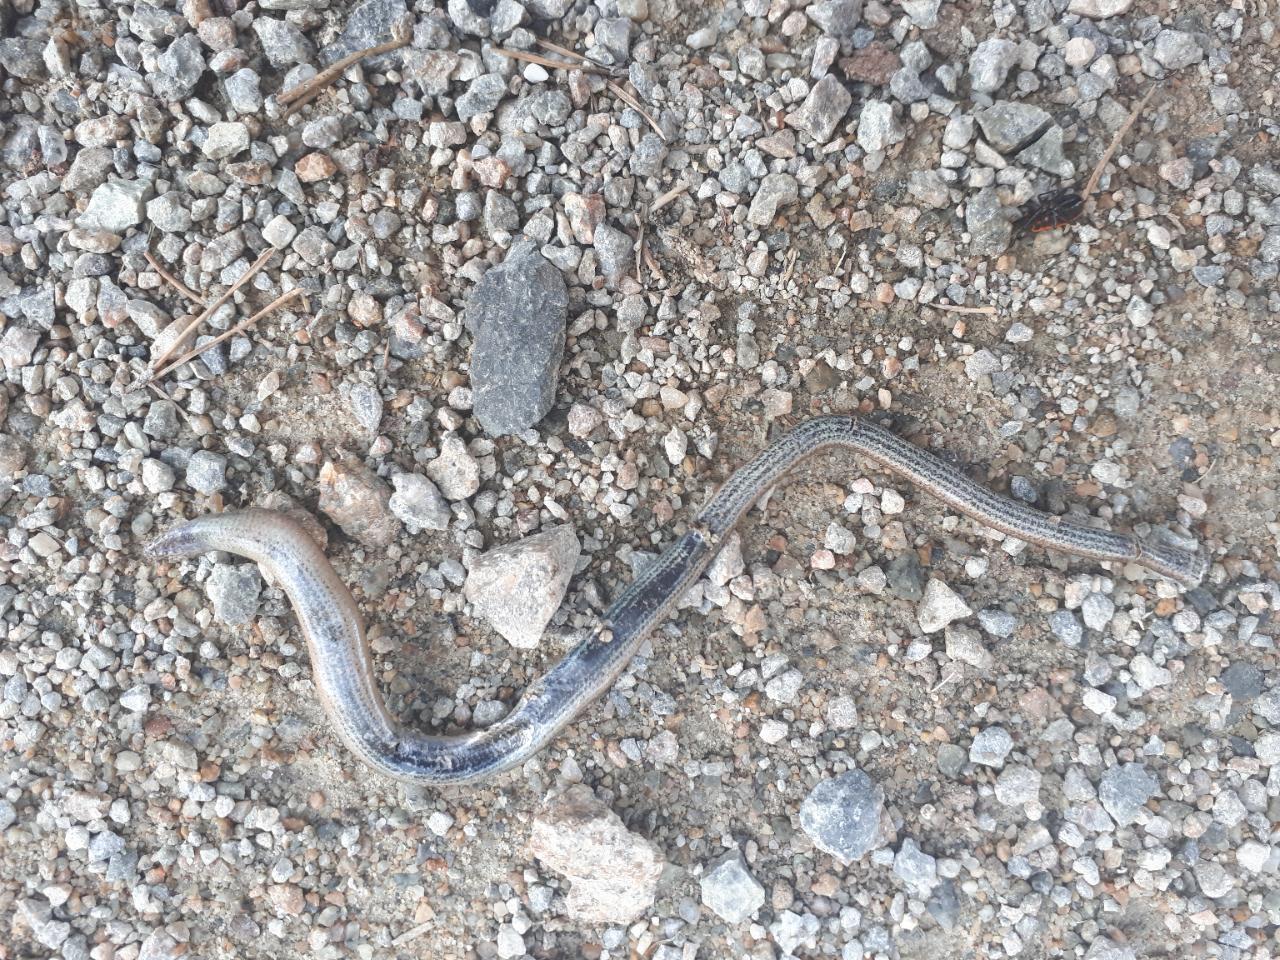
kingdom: Animalia
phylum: Chordata
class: Squamata
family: Anguidae
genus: Anguis
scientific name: Anguis fragilis
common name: Slow worm
